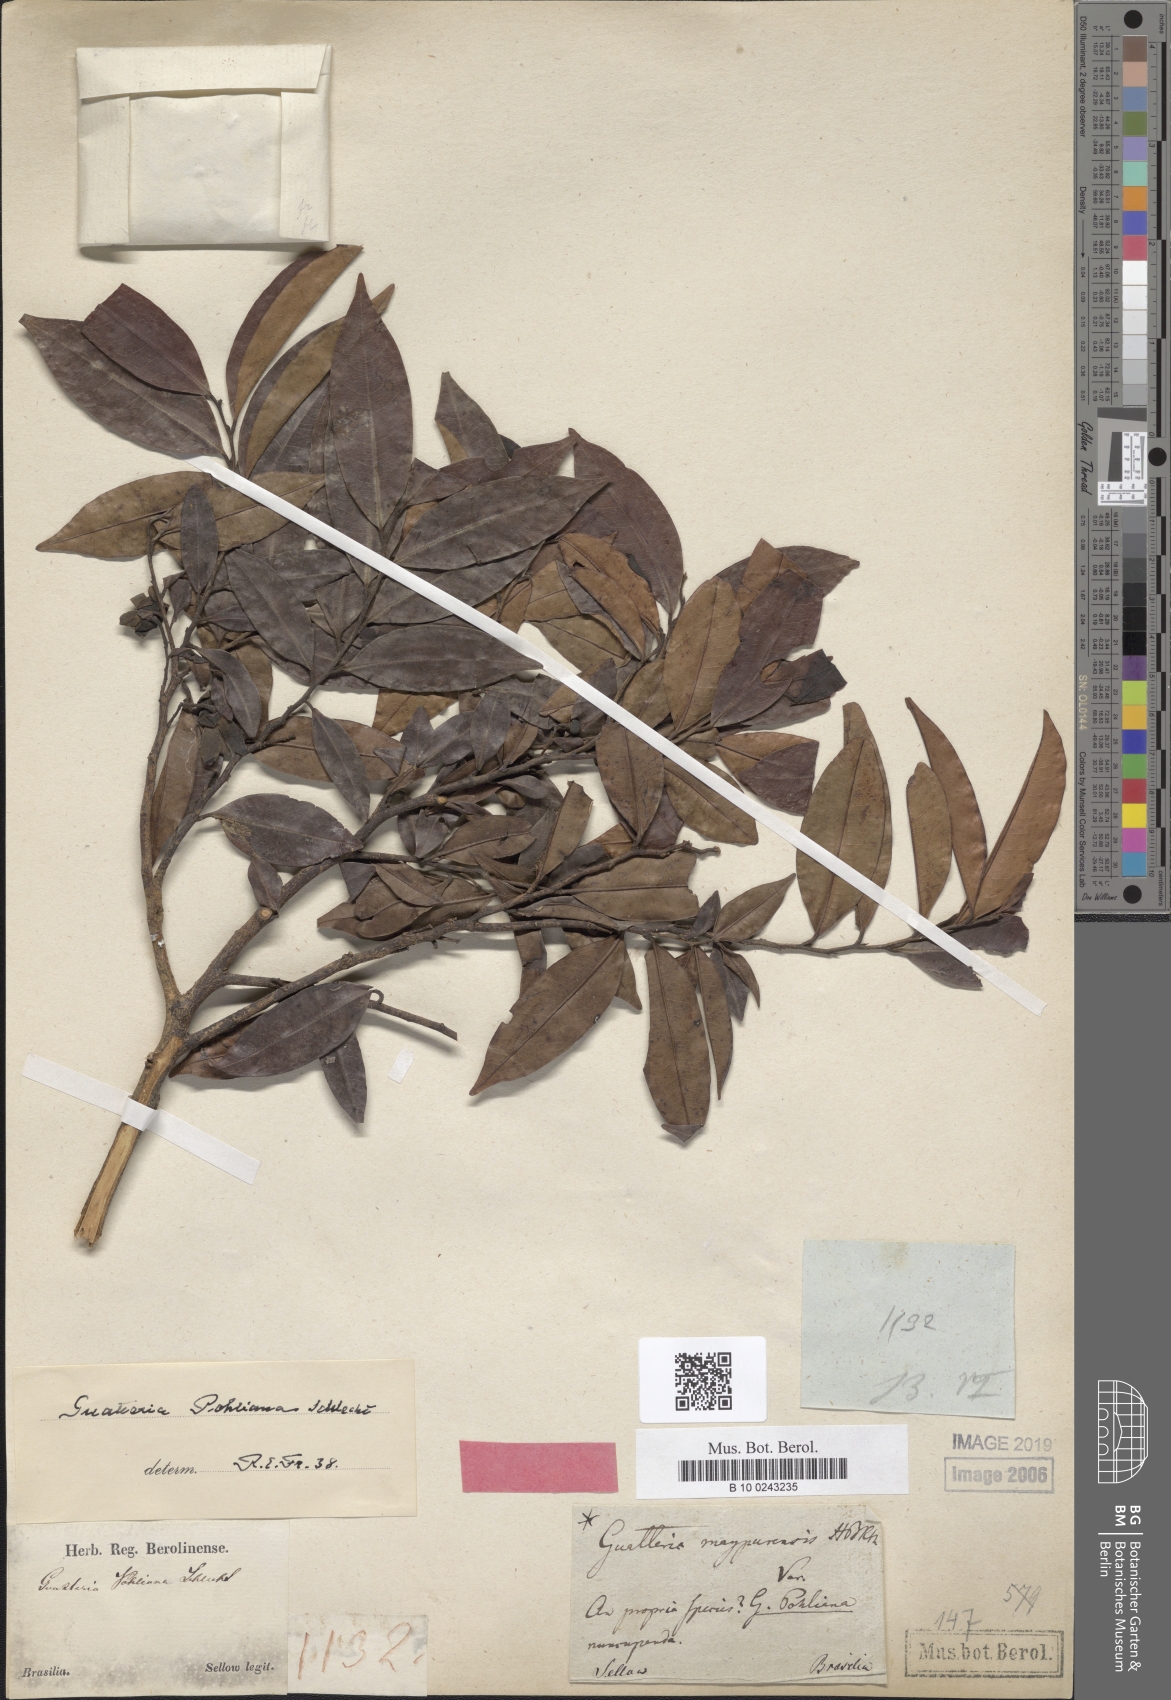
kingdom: Plantae
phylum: Tracheophyta
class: Magnoliopsida
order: Magnoliales
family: Annonaceae
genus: Guatteria
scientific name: Guatteria pohliana
